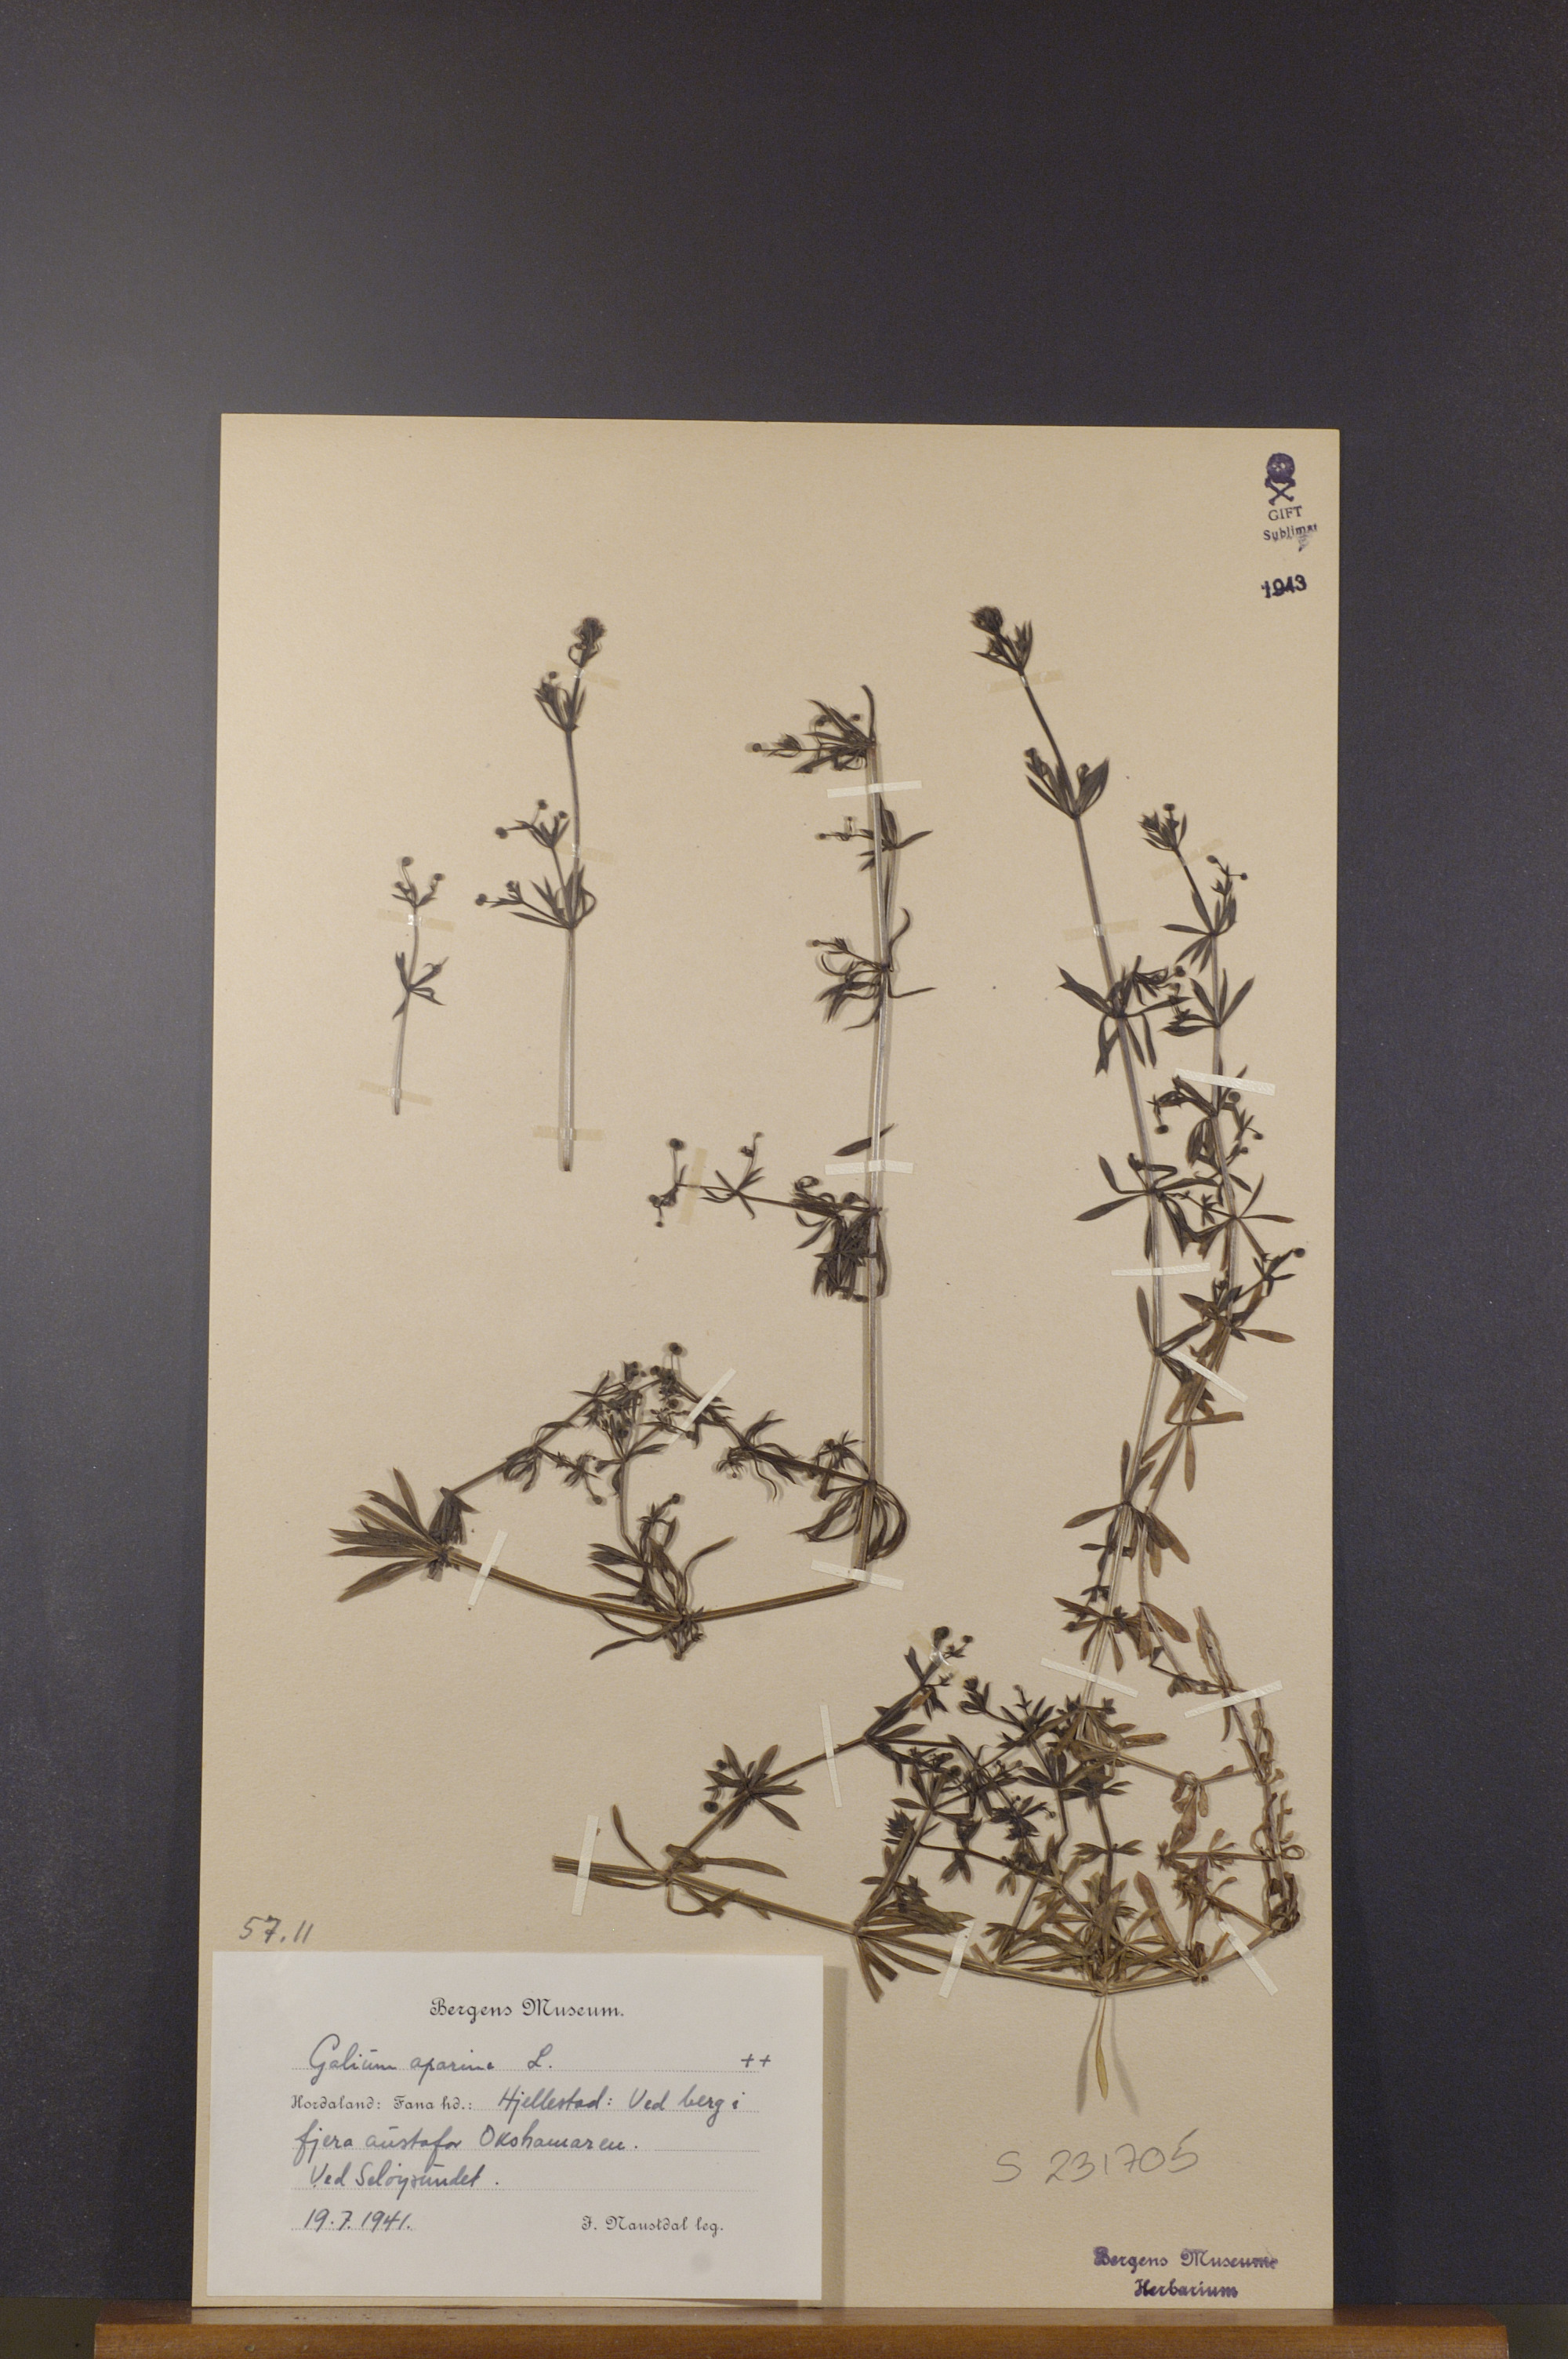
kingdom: Plantae
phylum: Tracheophyta
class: Magnoliopsida
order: Gentianales
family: Rubiaceae
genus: Galium
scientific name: Galium aparine
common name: Cleavers
